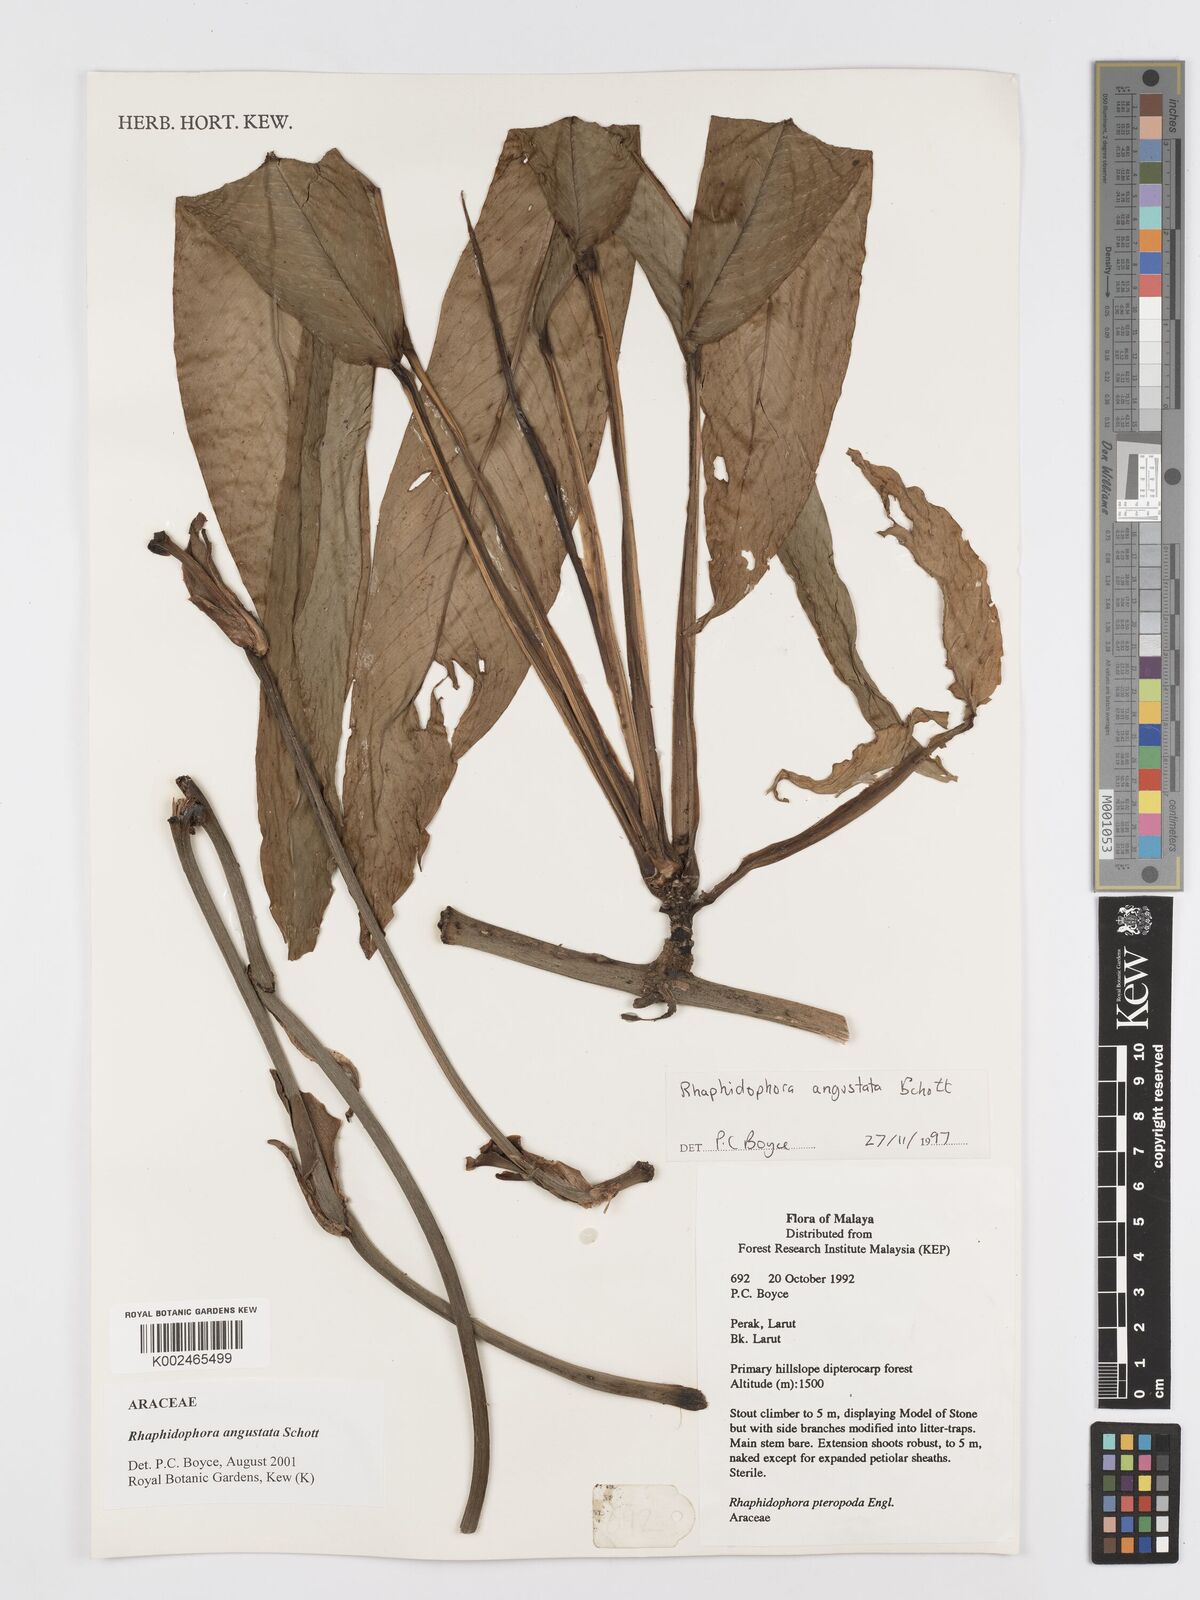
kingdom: Plantae
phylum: Tracheophyta
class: Liliopsida
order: Alismatales
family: Araceae
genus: Rhaphidophora
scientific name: Rhaphidophora angustata
